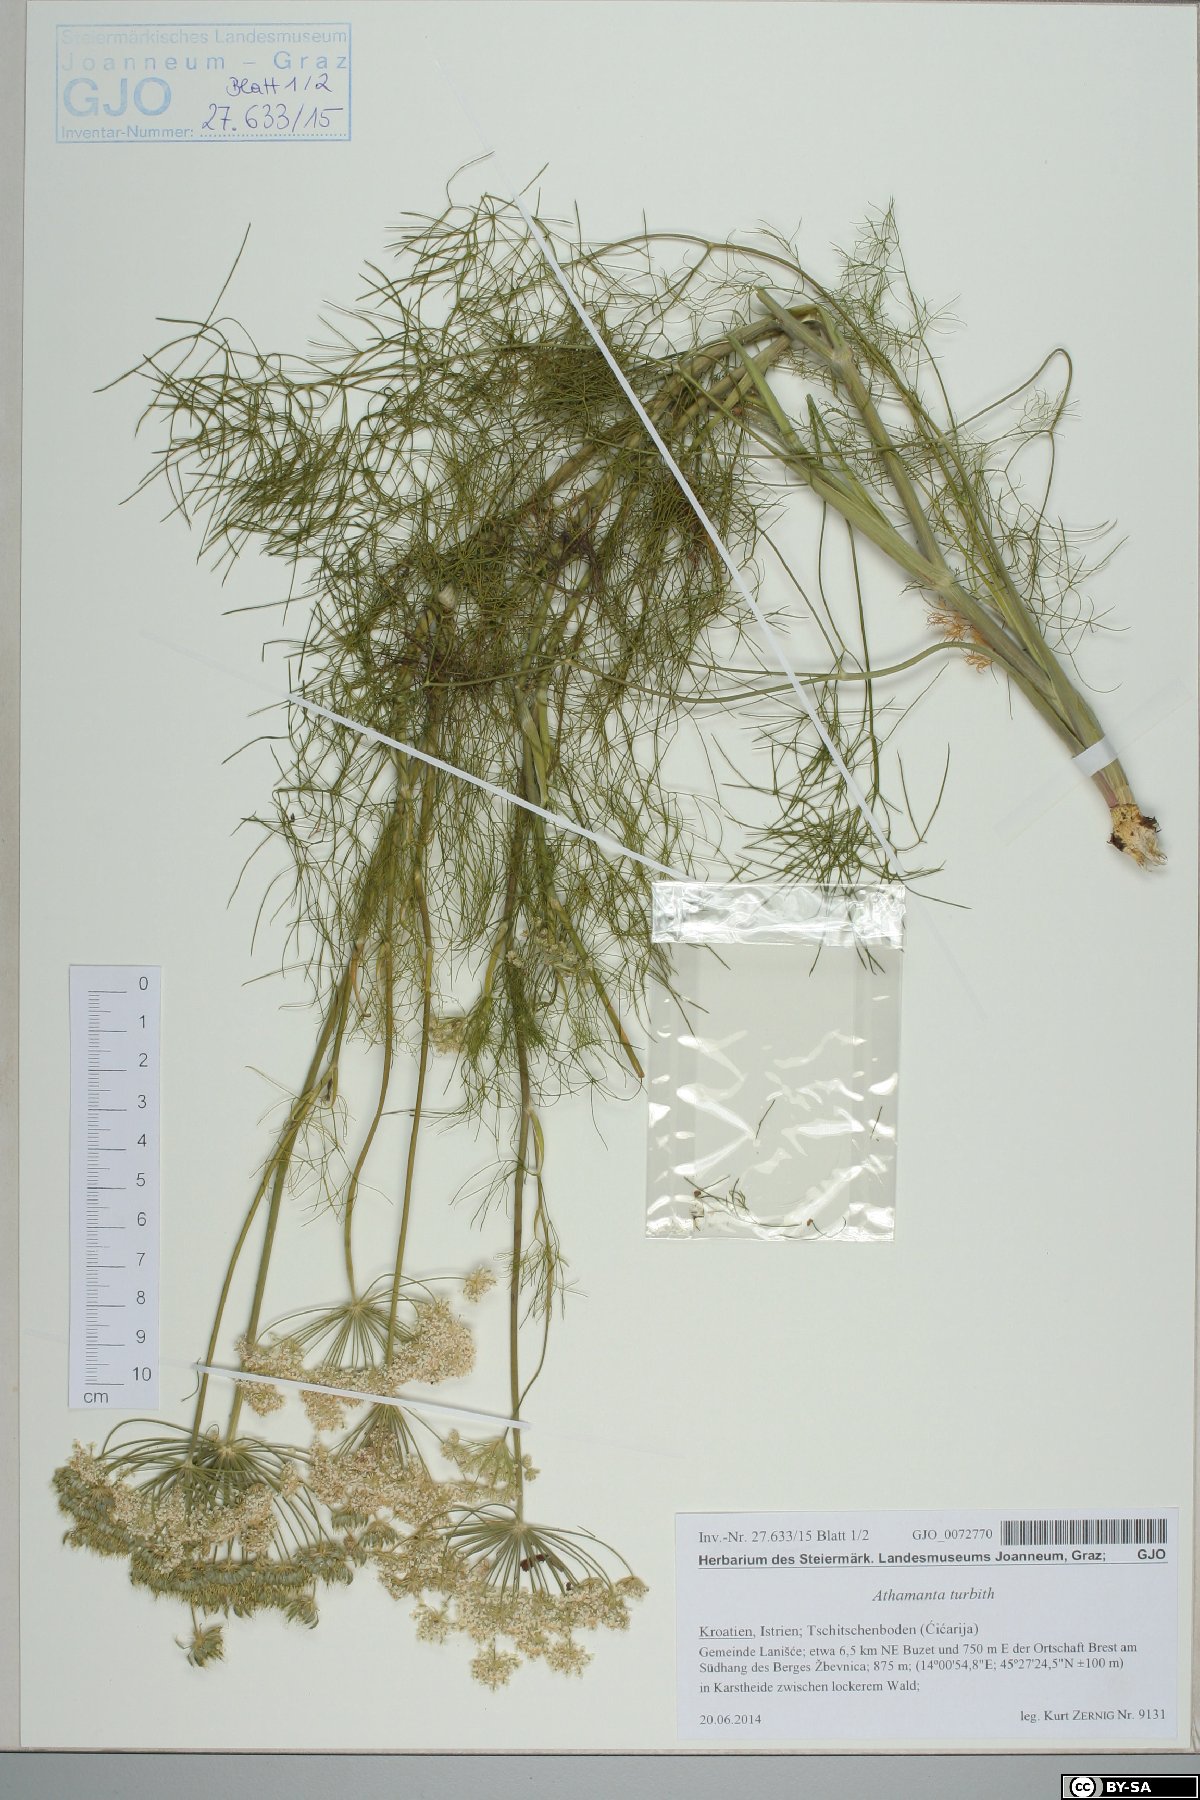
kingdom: Plantae
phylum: Tracheophyta
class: Magnoliopsida
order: Apiales
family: Apiaceae
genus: Athamanta
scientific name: Athamanta turbith
